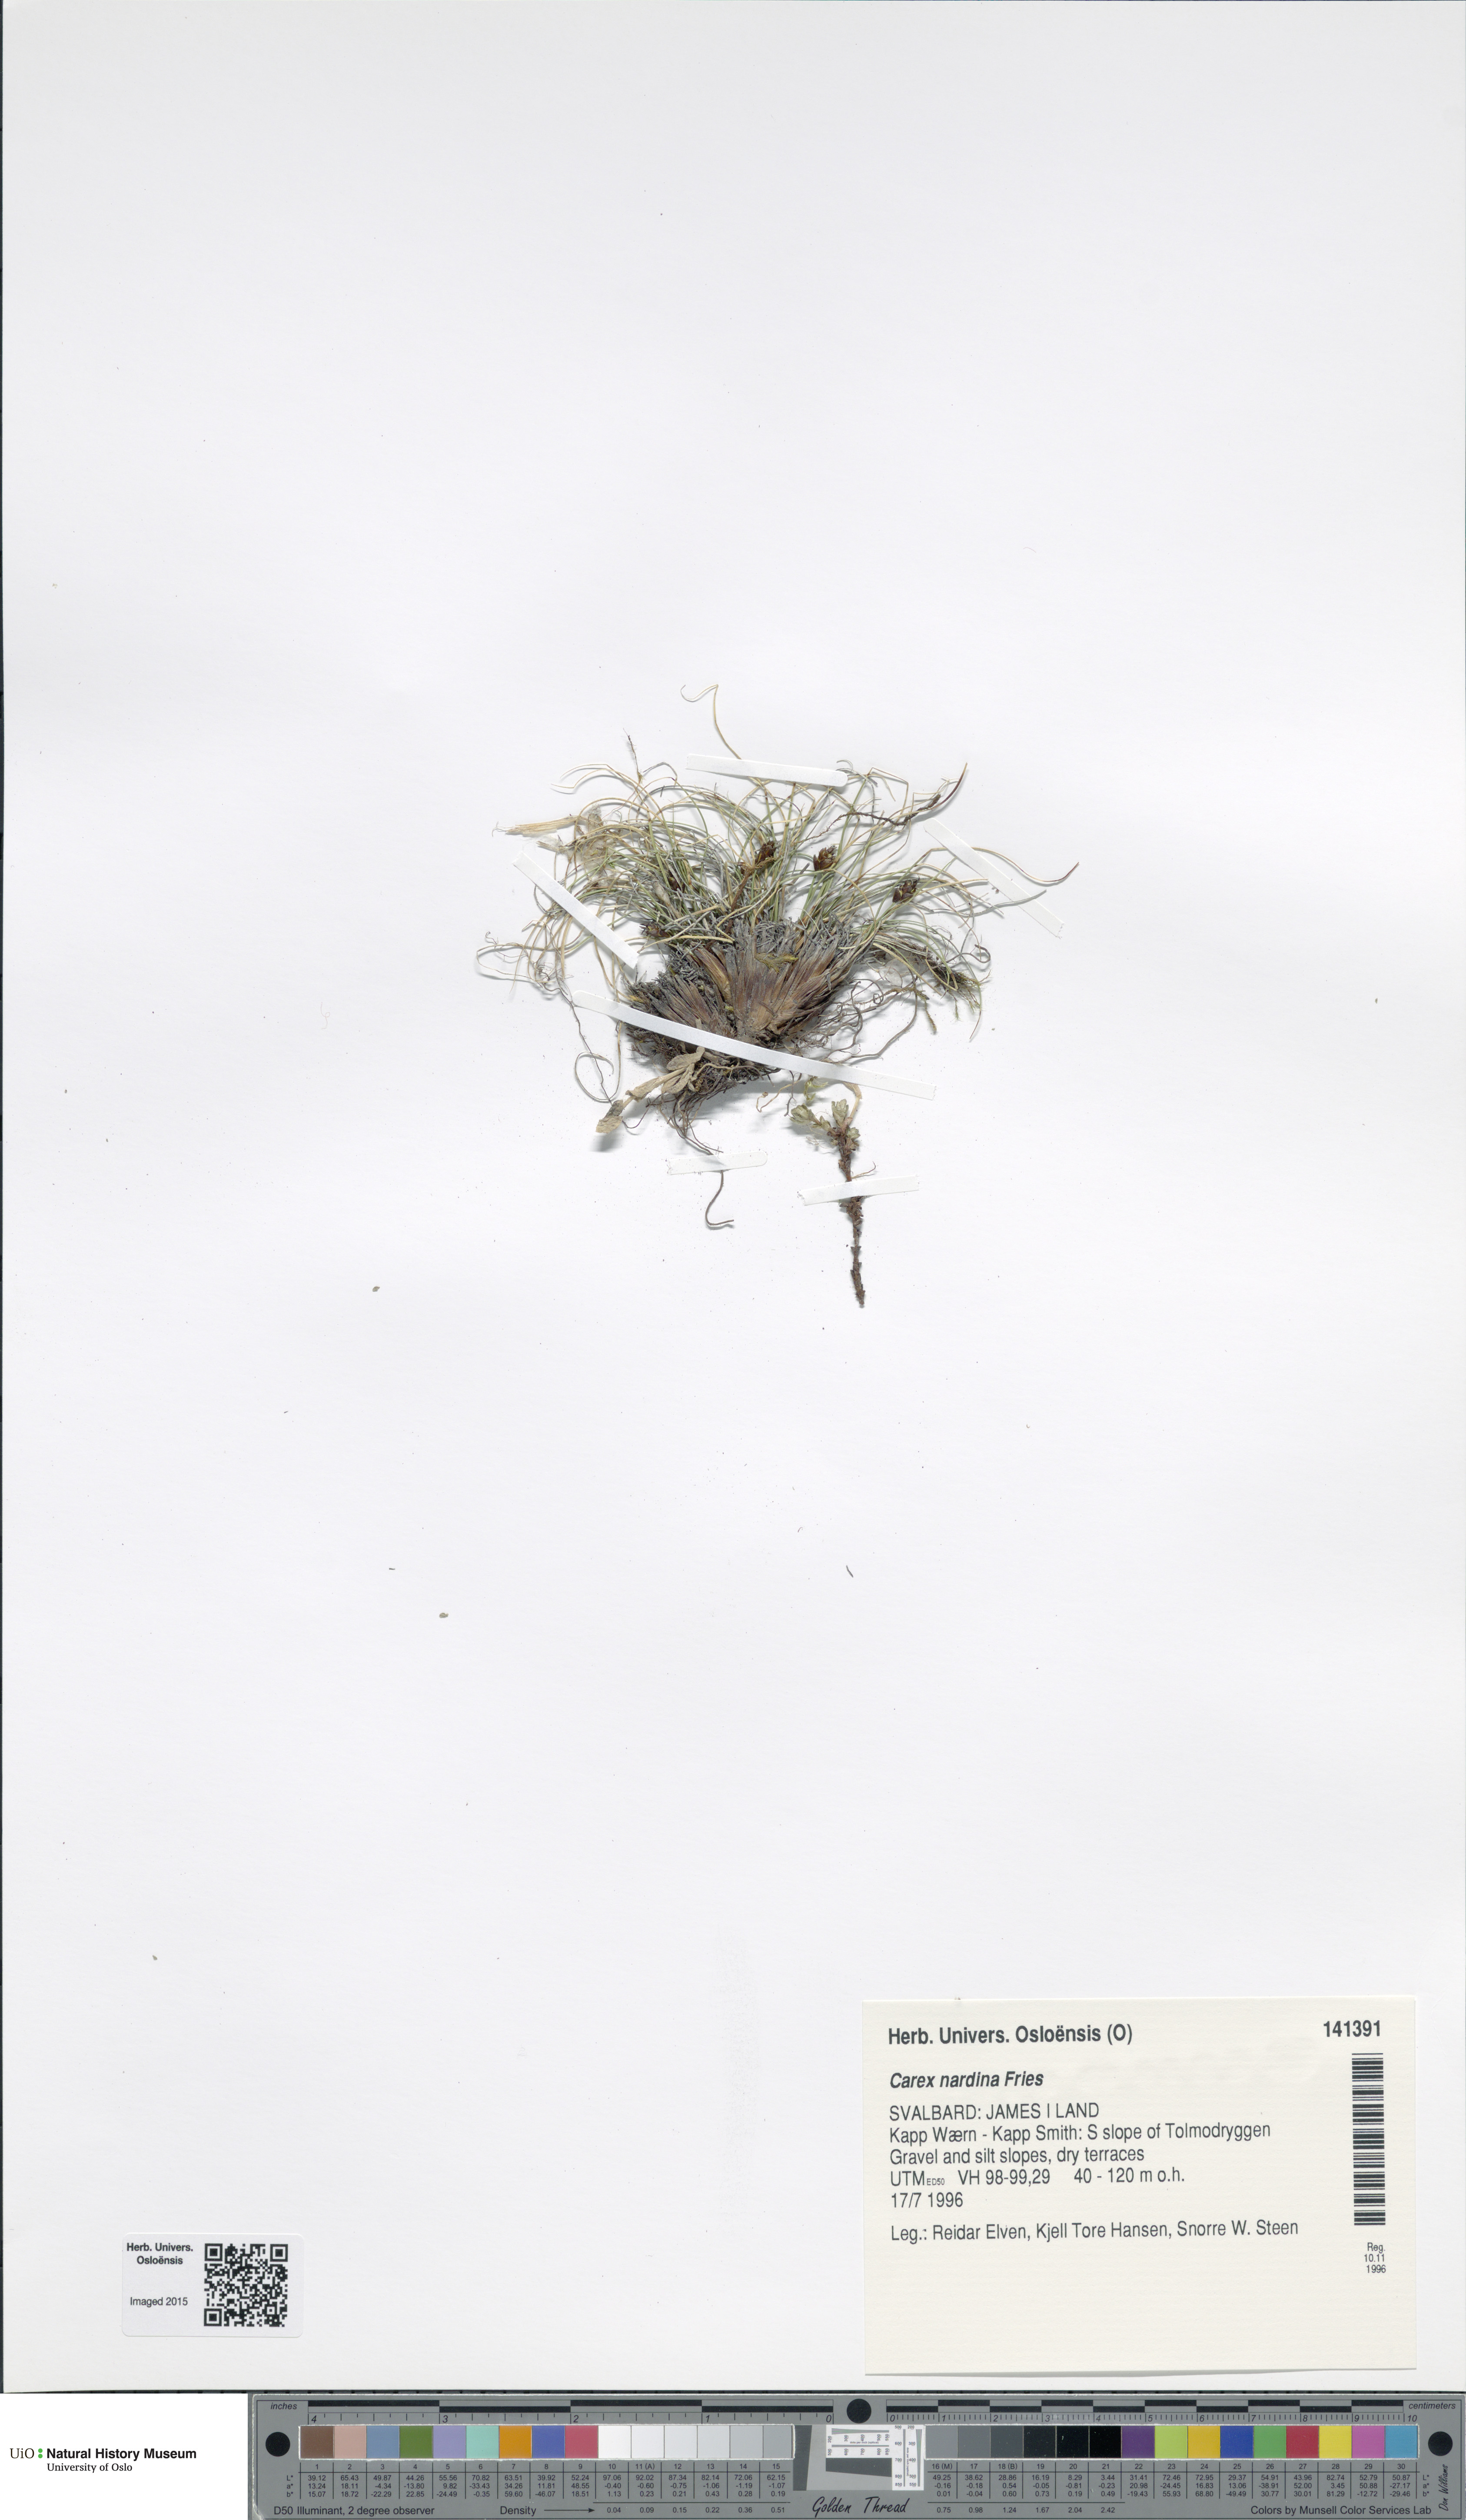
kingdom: Plantae
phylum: Tracheophyta
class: Liliopsida
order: Poales
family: Cyperaceae
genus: Carex
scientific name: Carex nardina
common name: Nard sedge
